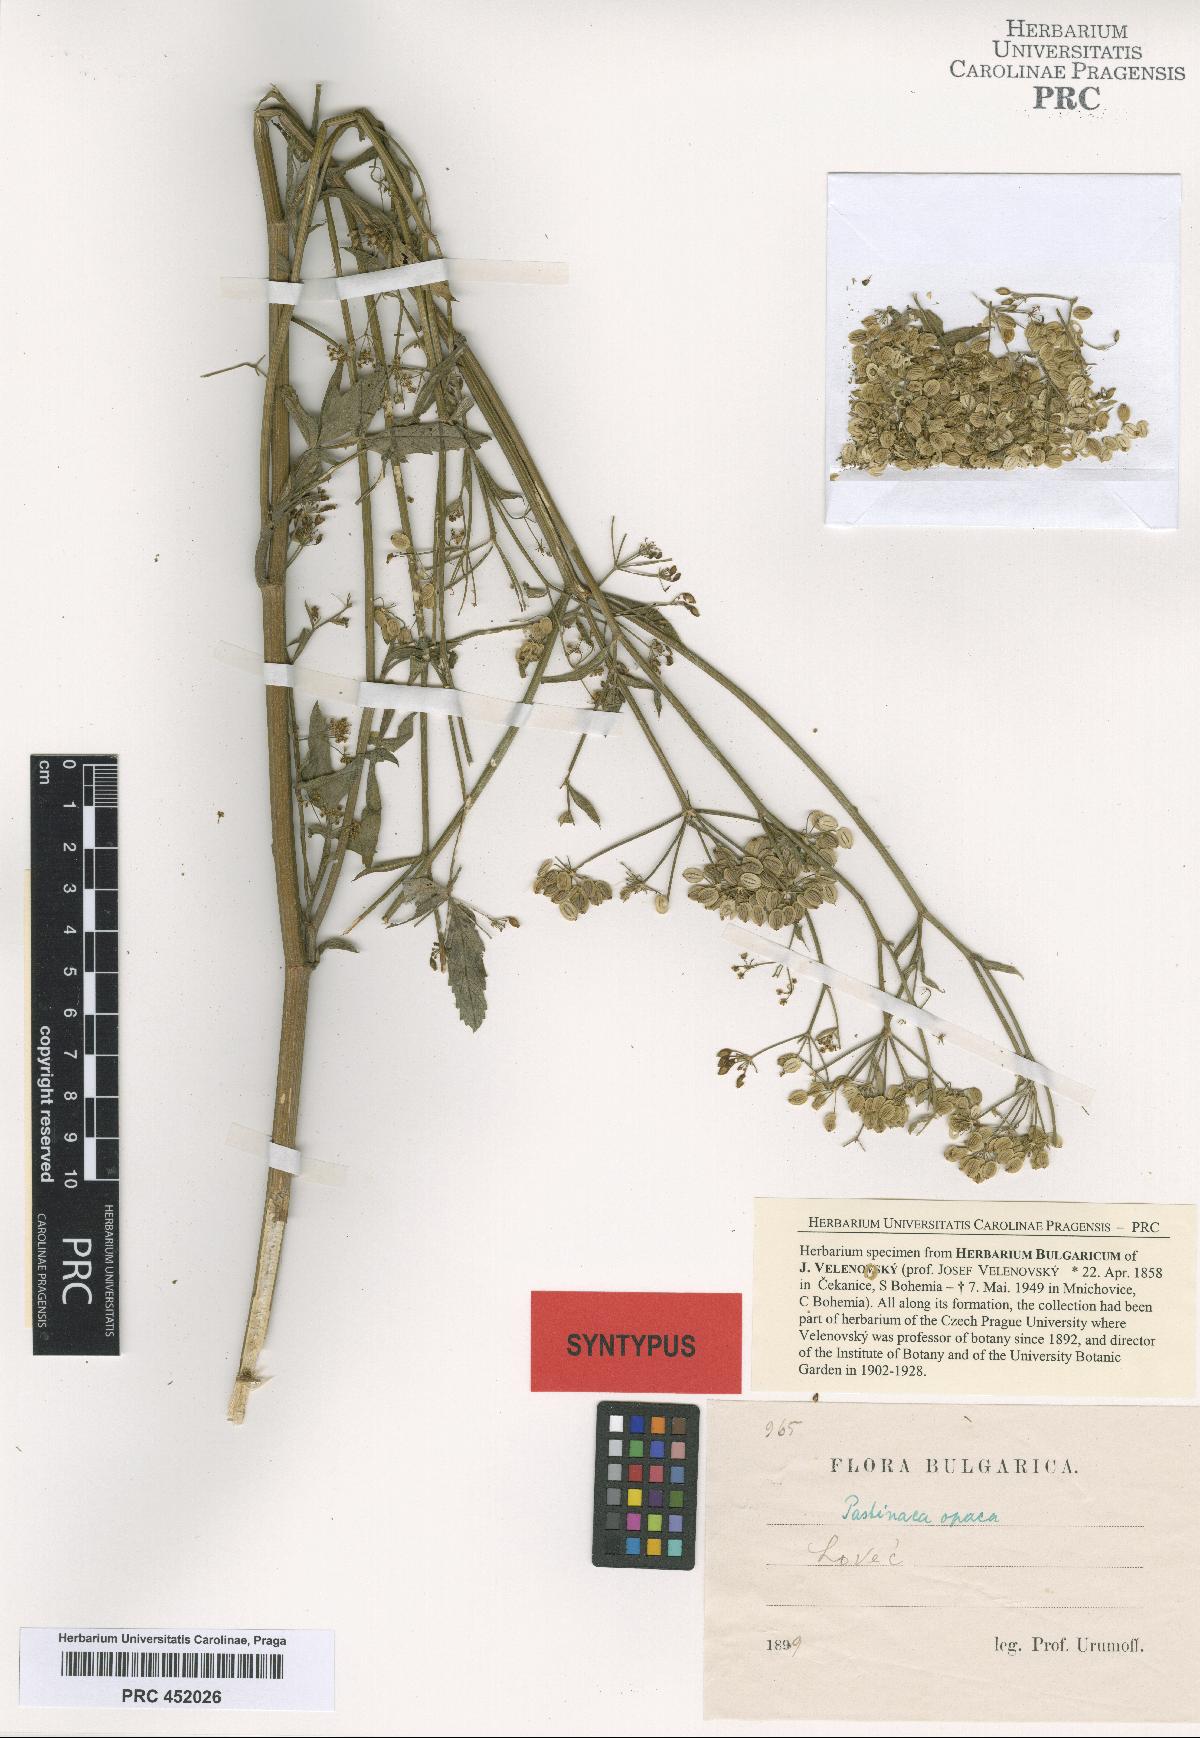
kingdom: Plantae
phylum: Tracheophyta
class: Magnoliopsida
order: Apiales
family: Apiaceae
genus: Pastinaca
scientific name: Pastinaca sativa
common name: Wild parsnip
